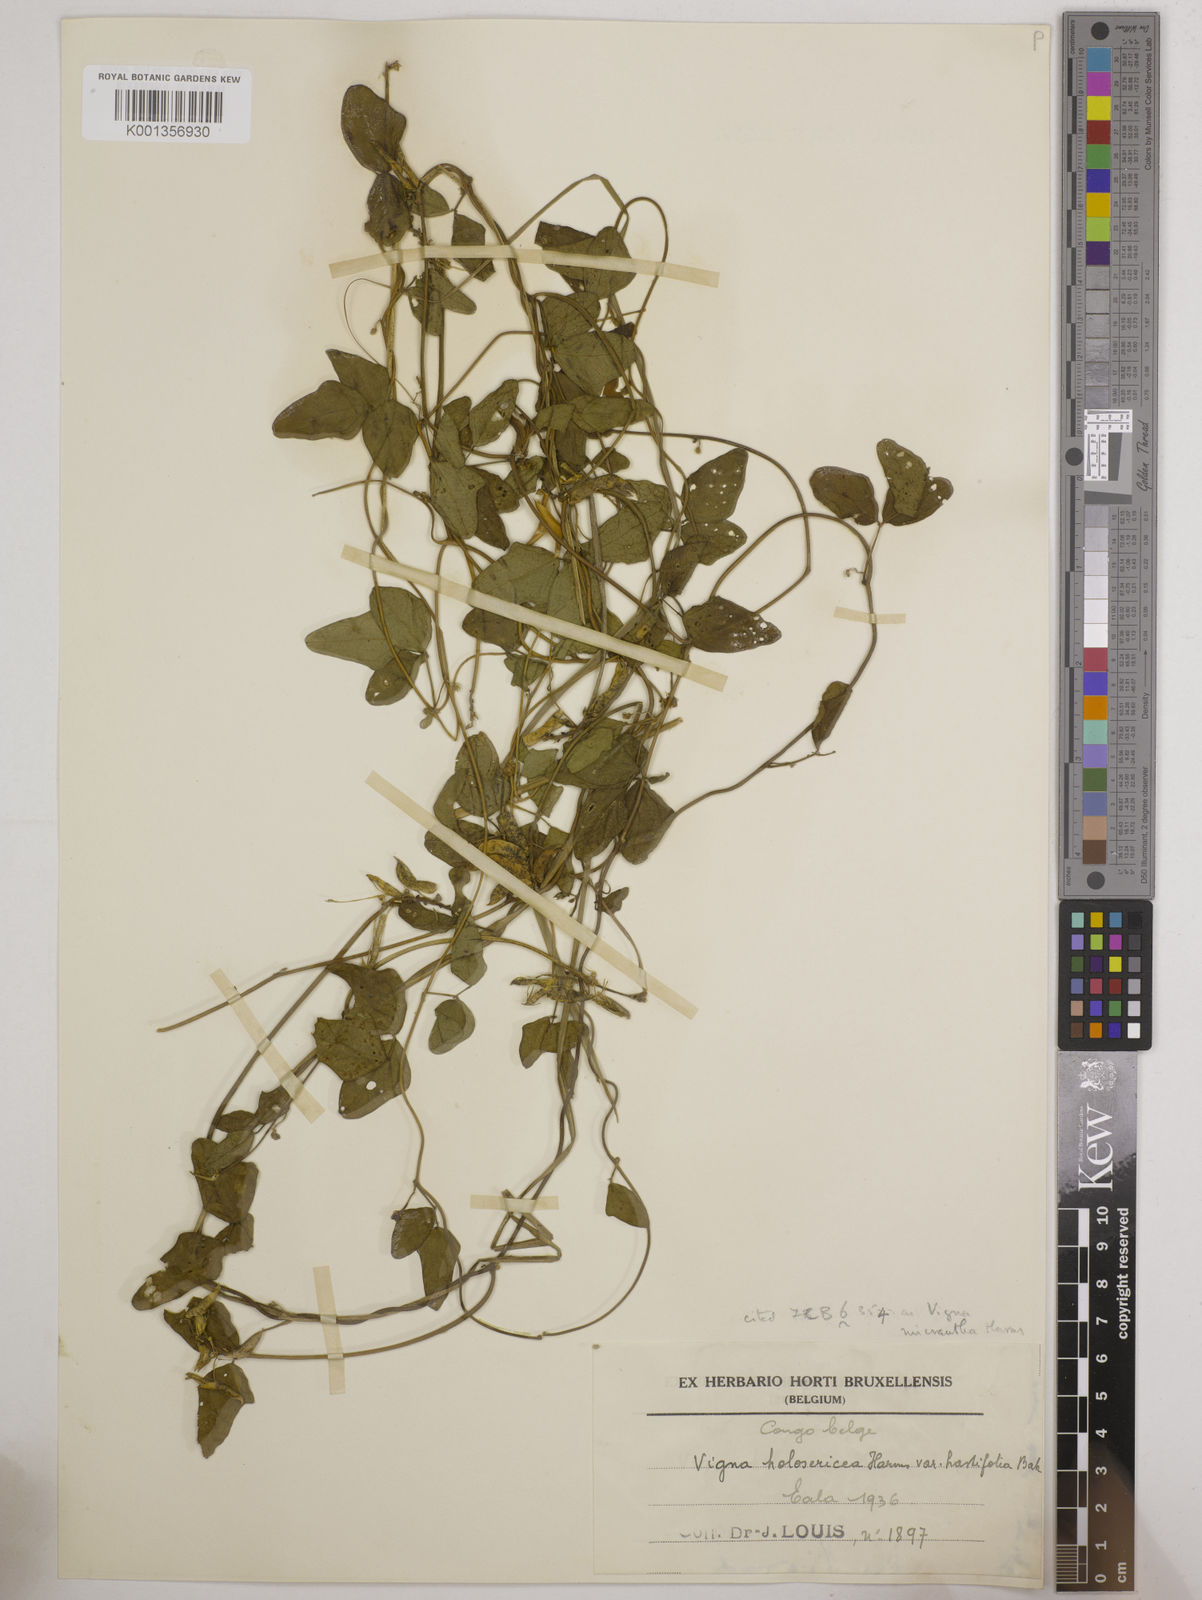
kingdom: Plantae
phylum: Tracheophyta
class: Magnoliopsida
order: Fabales
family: Fabaceae
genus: Vigna
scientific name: Vigna comosa
